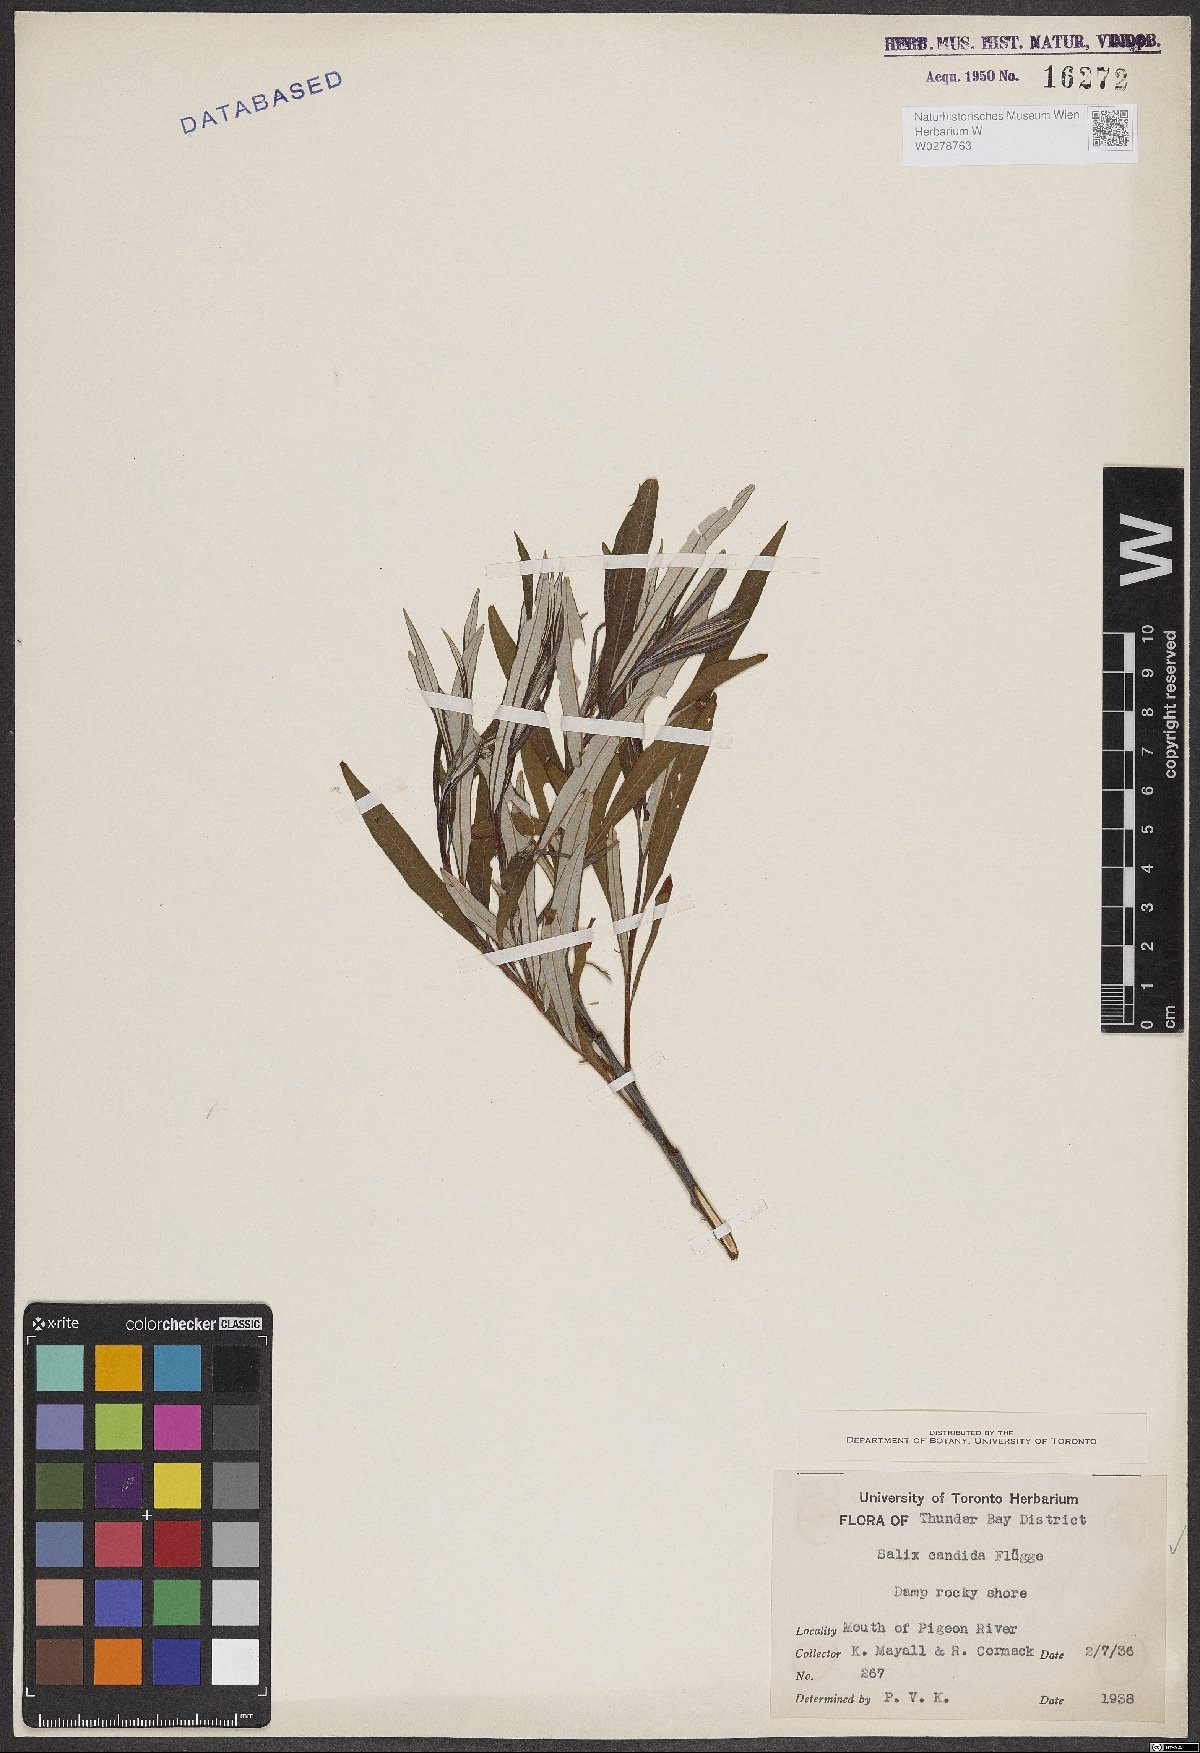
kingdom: Plantae
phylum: Tracheophyta
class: Magnoliopsida
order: Malpighiales
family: Salicaceae
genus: Salix
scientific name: Salix candida
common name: Hoary willow
